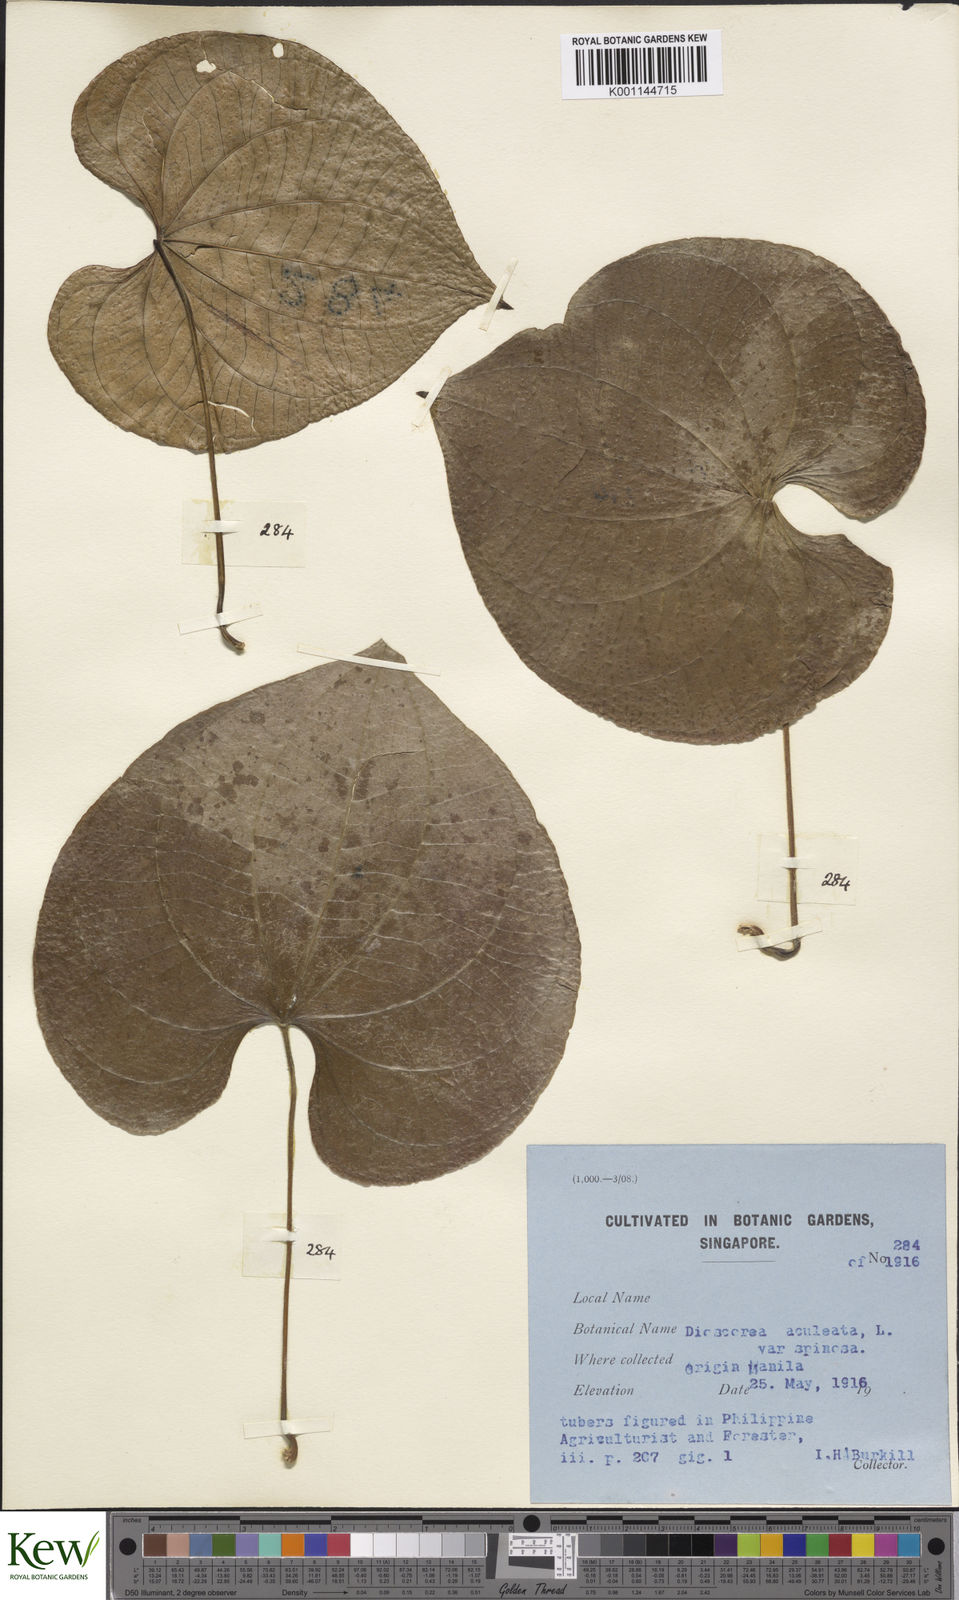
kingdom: Plantae
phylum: Tracheophyta
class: Liliopsida
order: Dioscoreales
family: Dioscoreaceae
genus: Dioscorea
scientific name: Dioscorea esculenta
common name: Chinese yam
